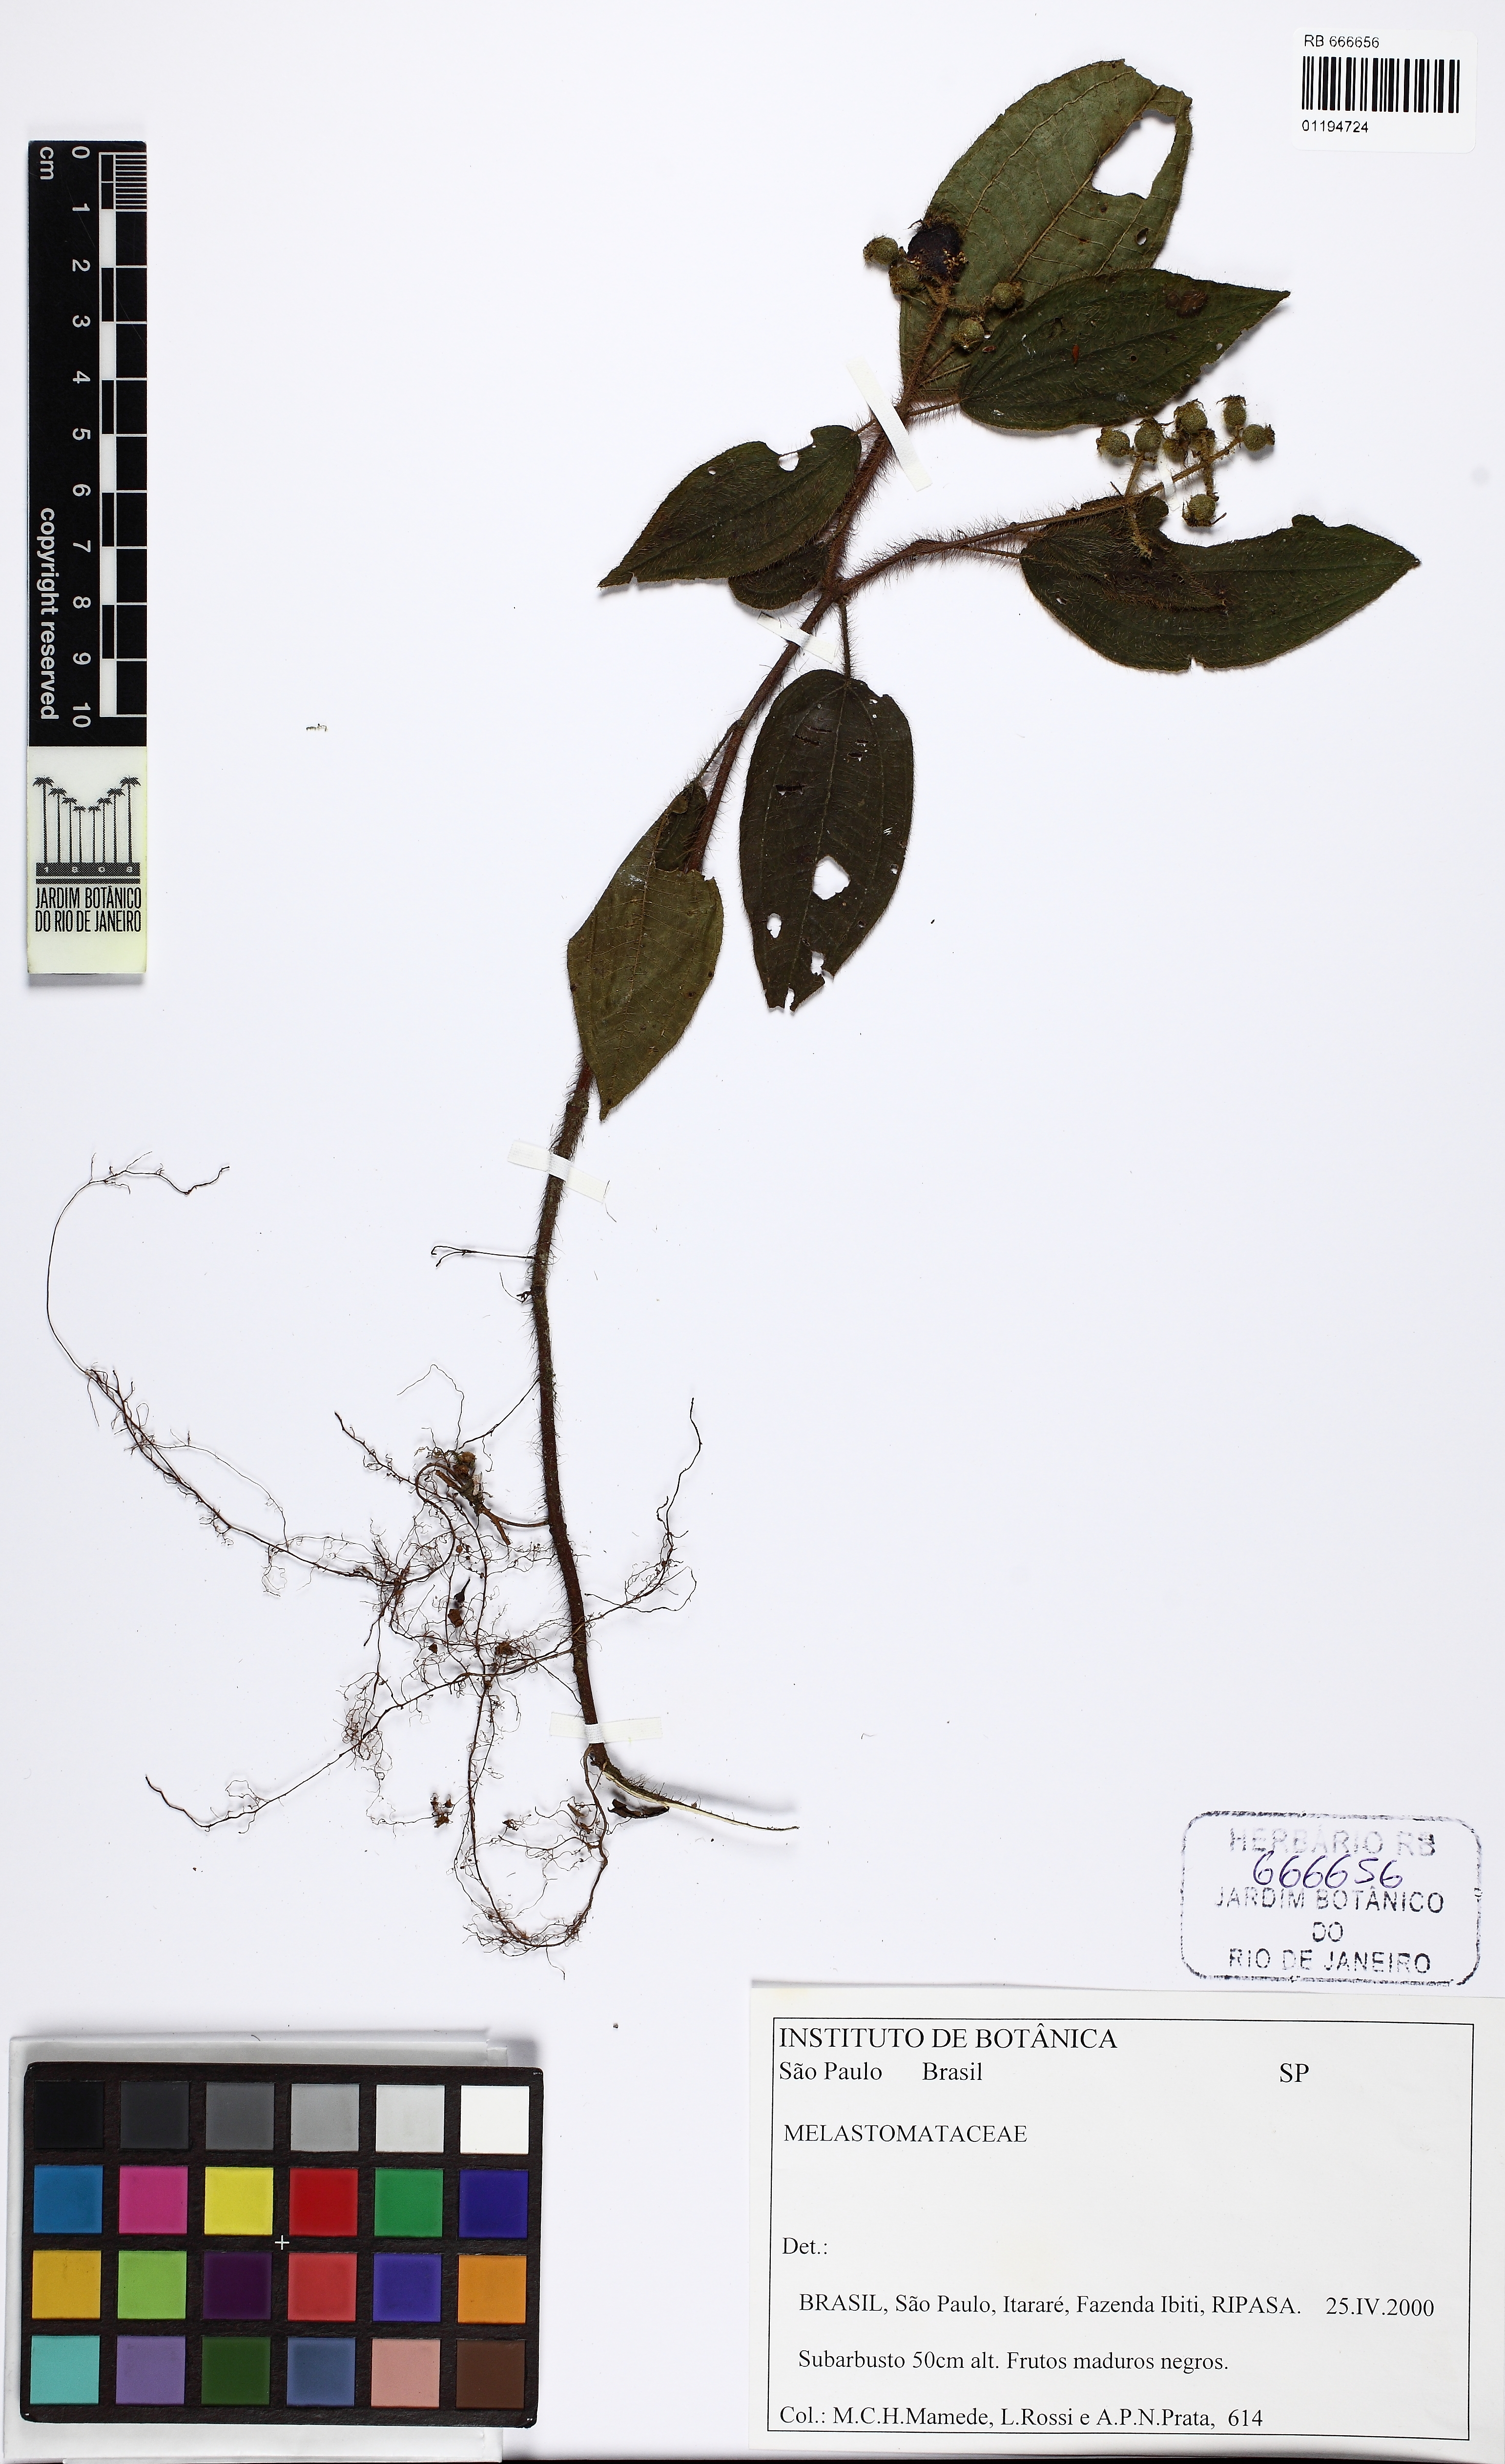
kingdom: Plantae
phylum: Tracheophyta
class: Magnoliopsida
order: Myrtales
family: Melastomataceae
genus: Miconia
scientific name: Miconia
